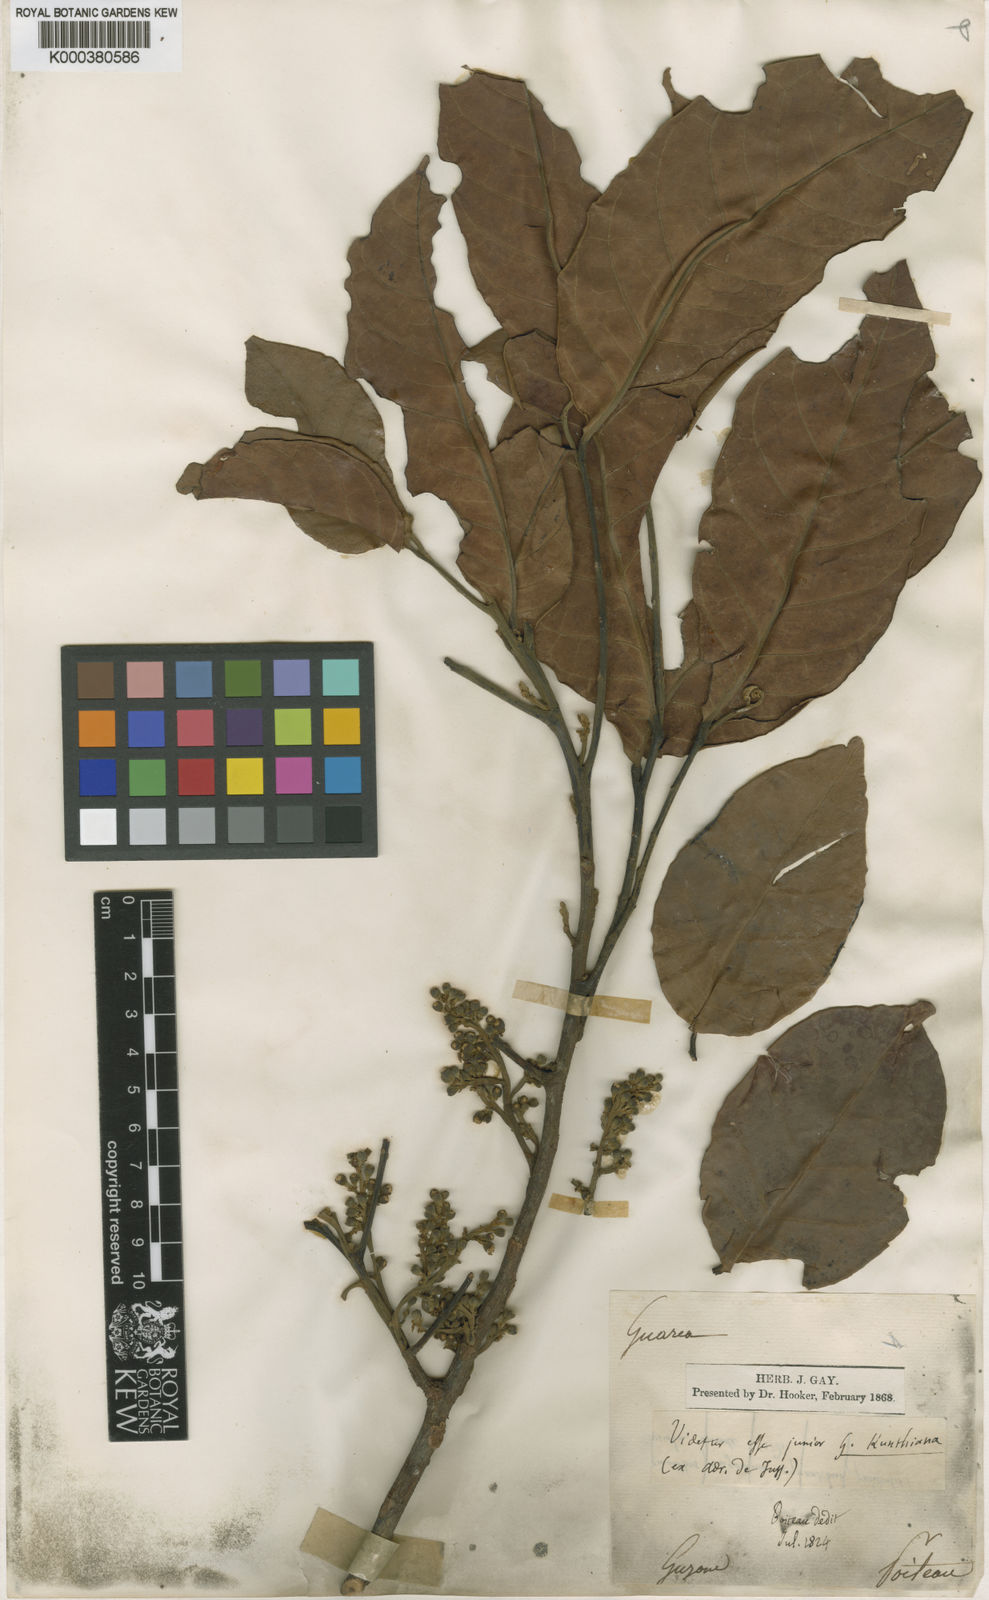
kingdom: Plantae
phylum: Tracheophyta
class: Magnoliopsida
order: Sapindales
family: Meliaceae
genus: Guarea
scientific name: Guarea kunthiana
